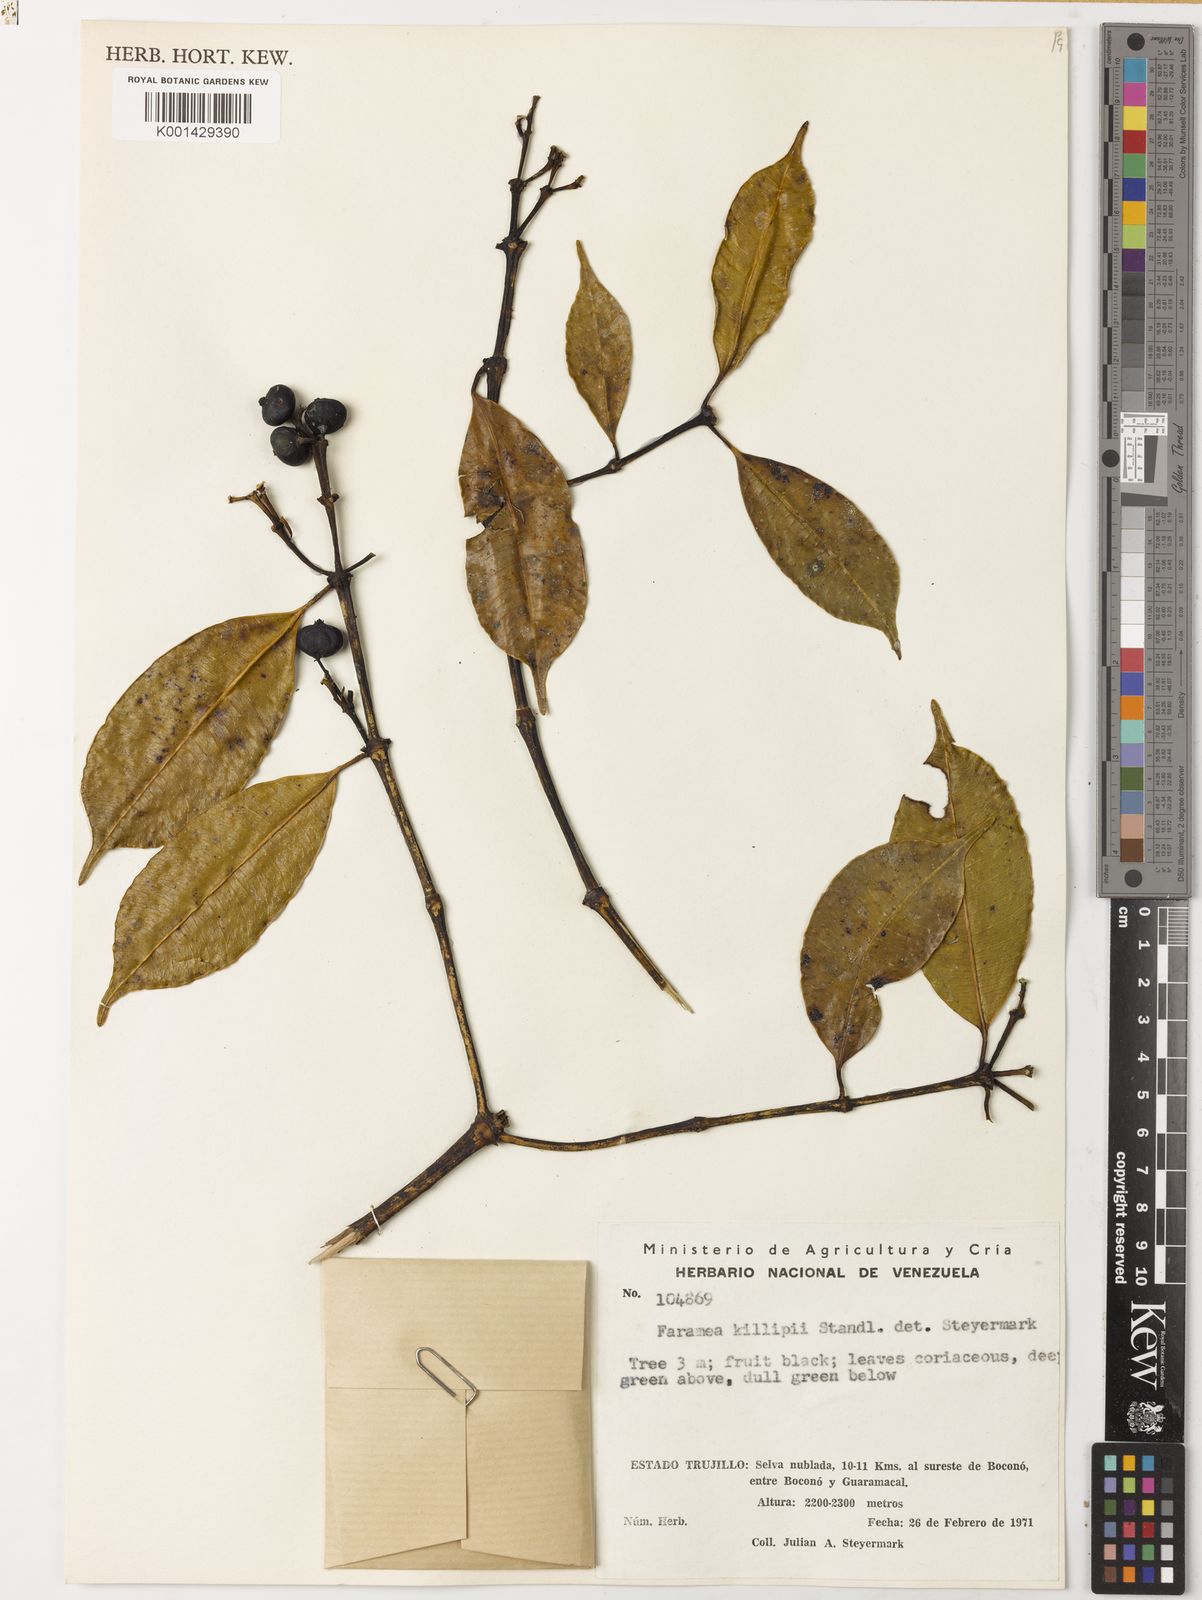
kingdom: Plantae
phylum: Tracheophyta
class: Magnoliopsida
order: Gentianales
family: Rubiaceae
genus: Faramea
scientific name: Faramea jasminoides
